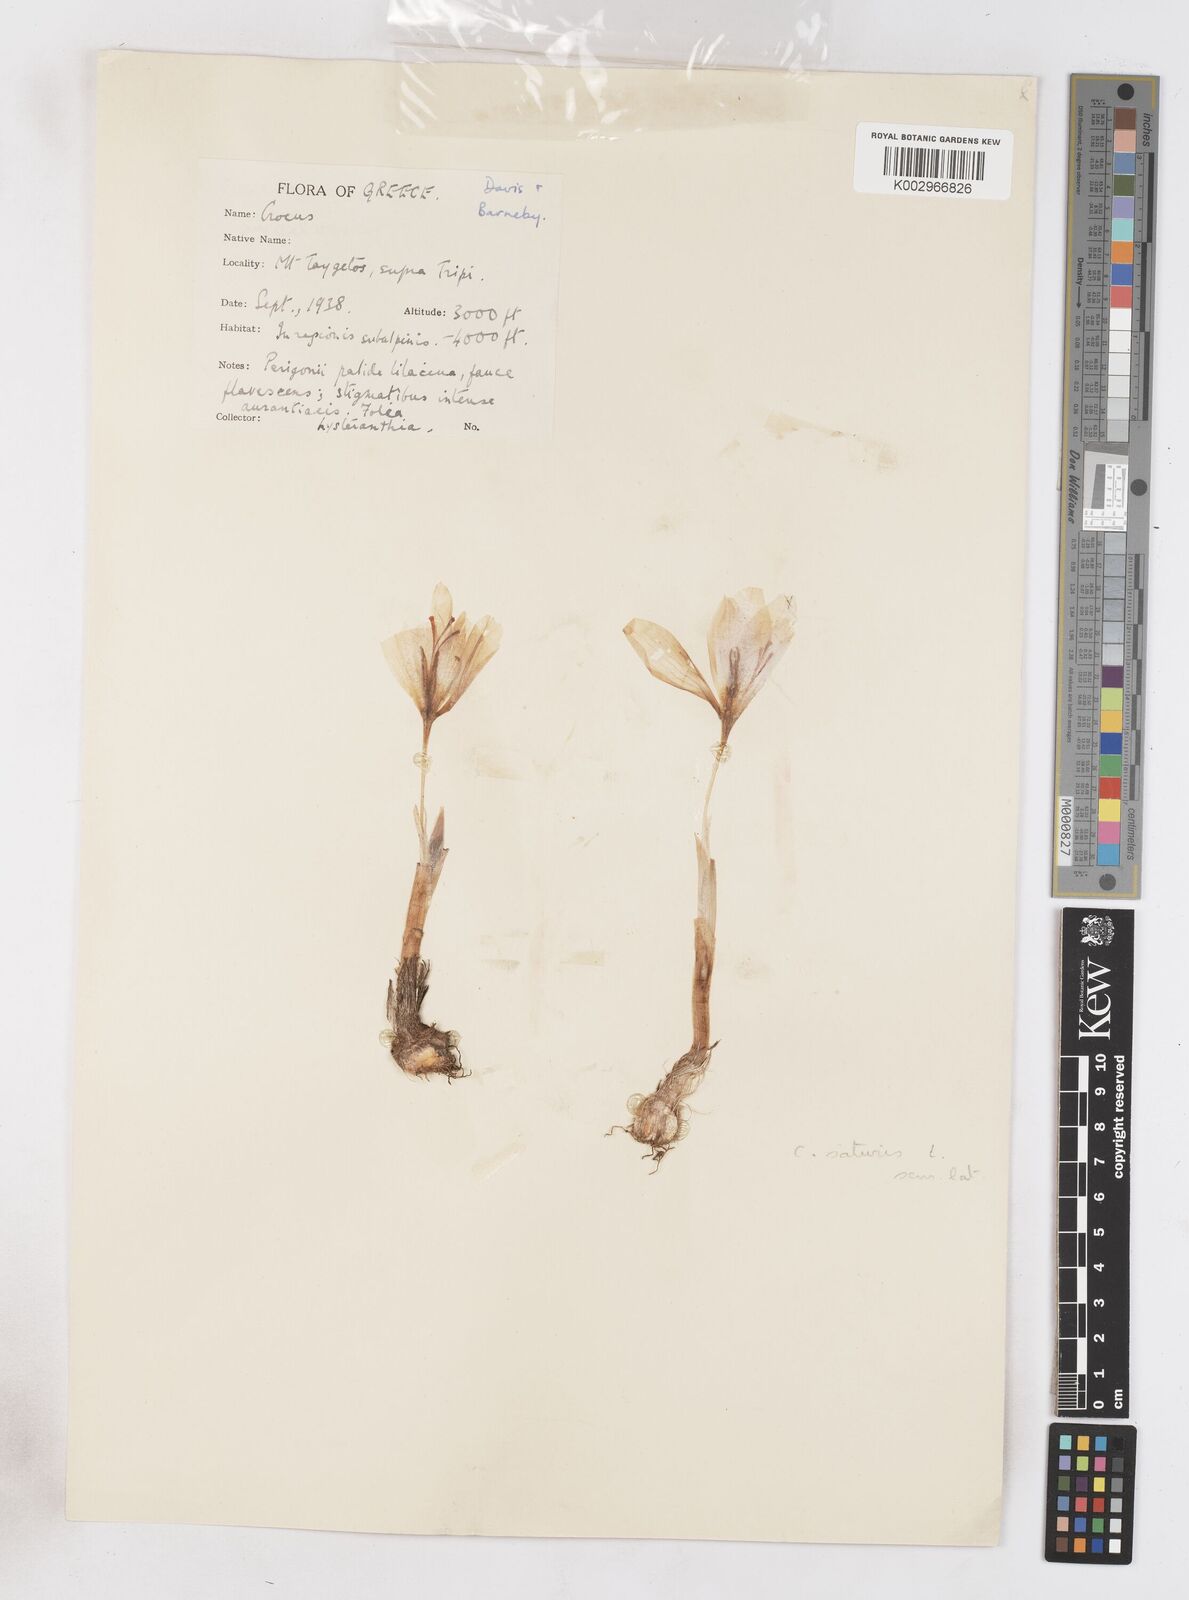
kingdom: Plantae
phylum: Tracheophyta
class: Liliopsida
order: Asparagales
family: Iridaceae
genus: Crocus
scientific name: Crocus hadriaticus
